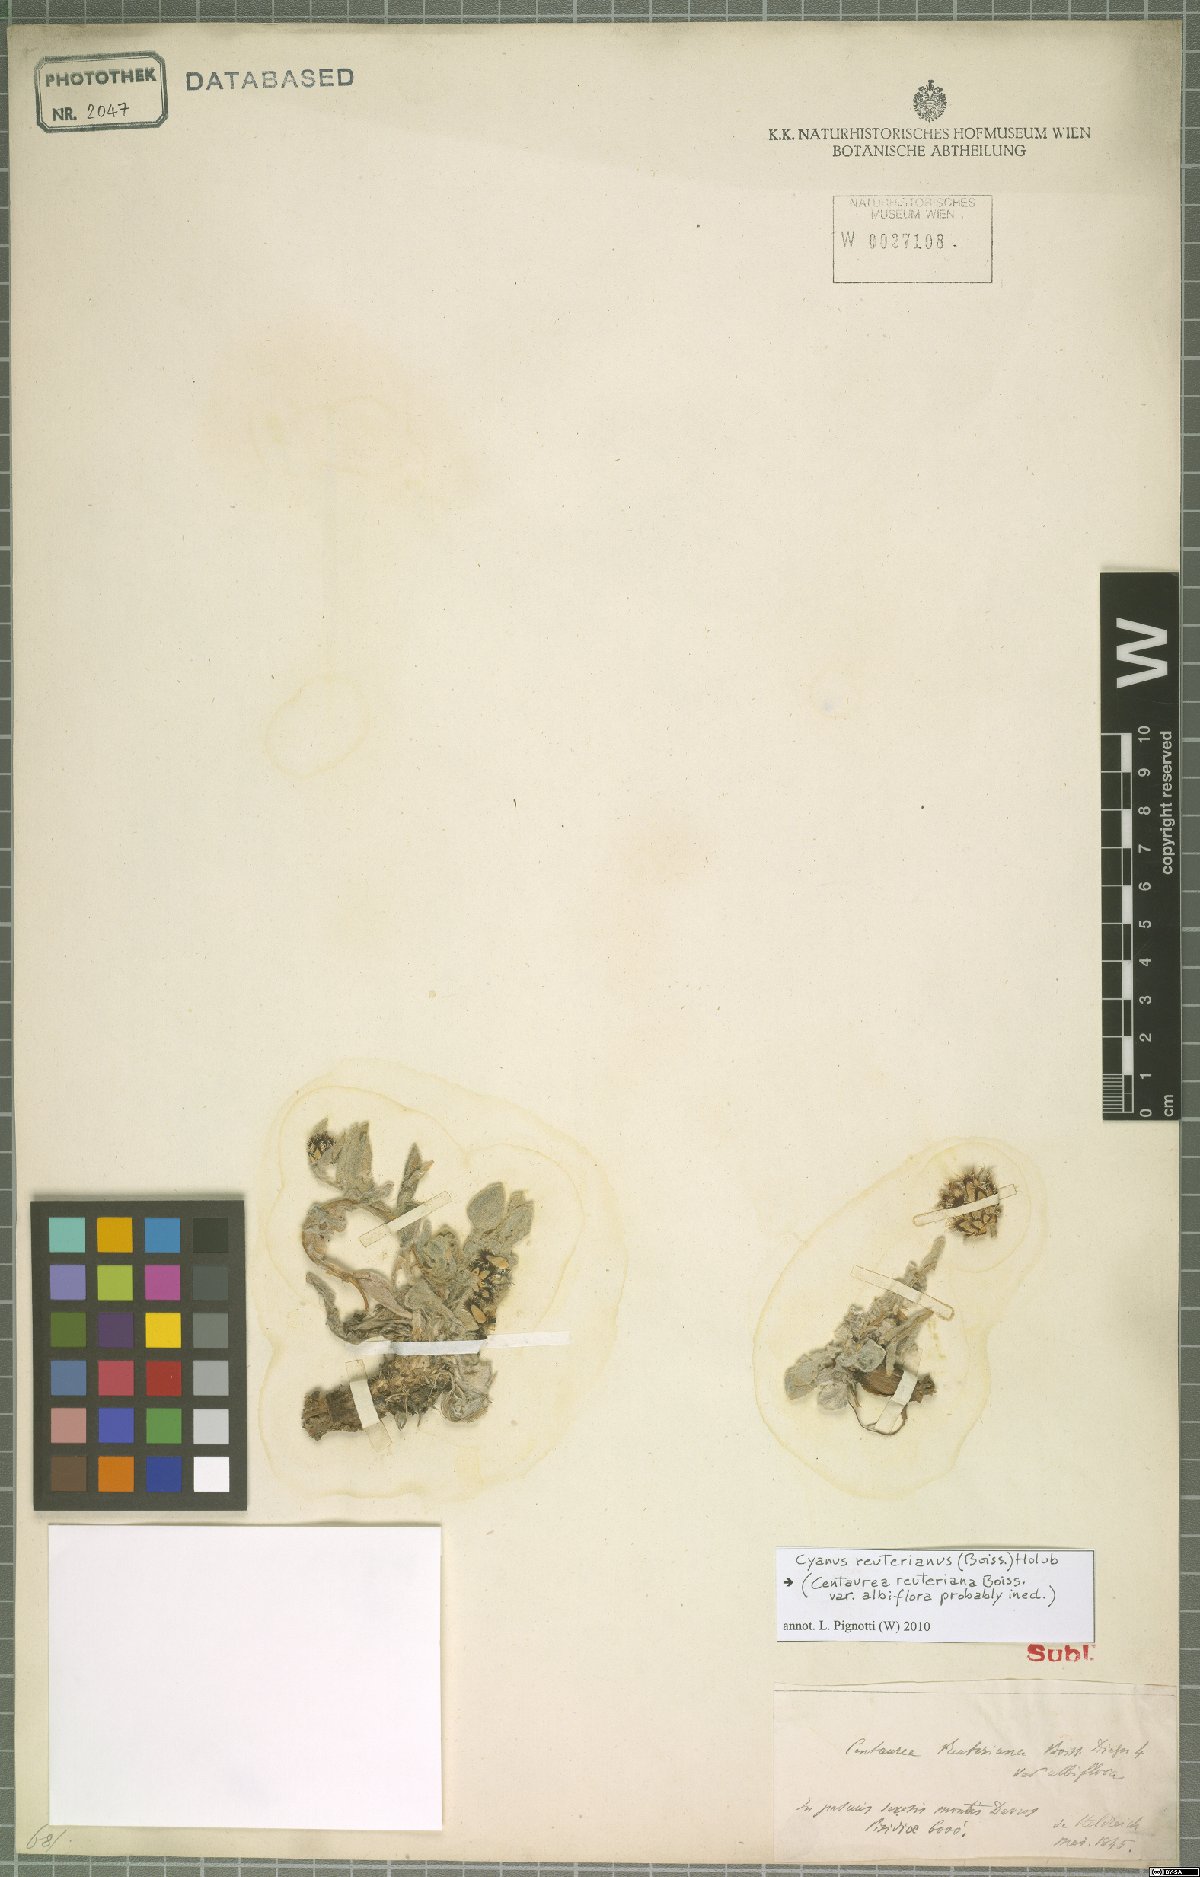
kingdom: Plantae
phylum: Tracheophyta
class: Magnoliopsida
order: Asterales
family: Asteraceae
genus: Centaurea
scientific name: Centaurea reuteriana
